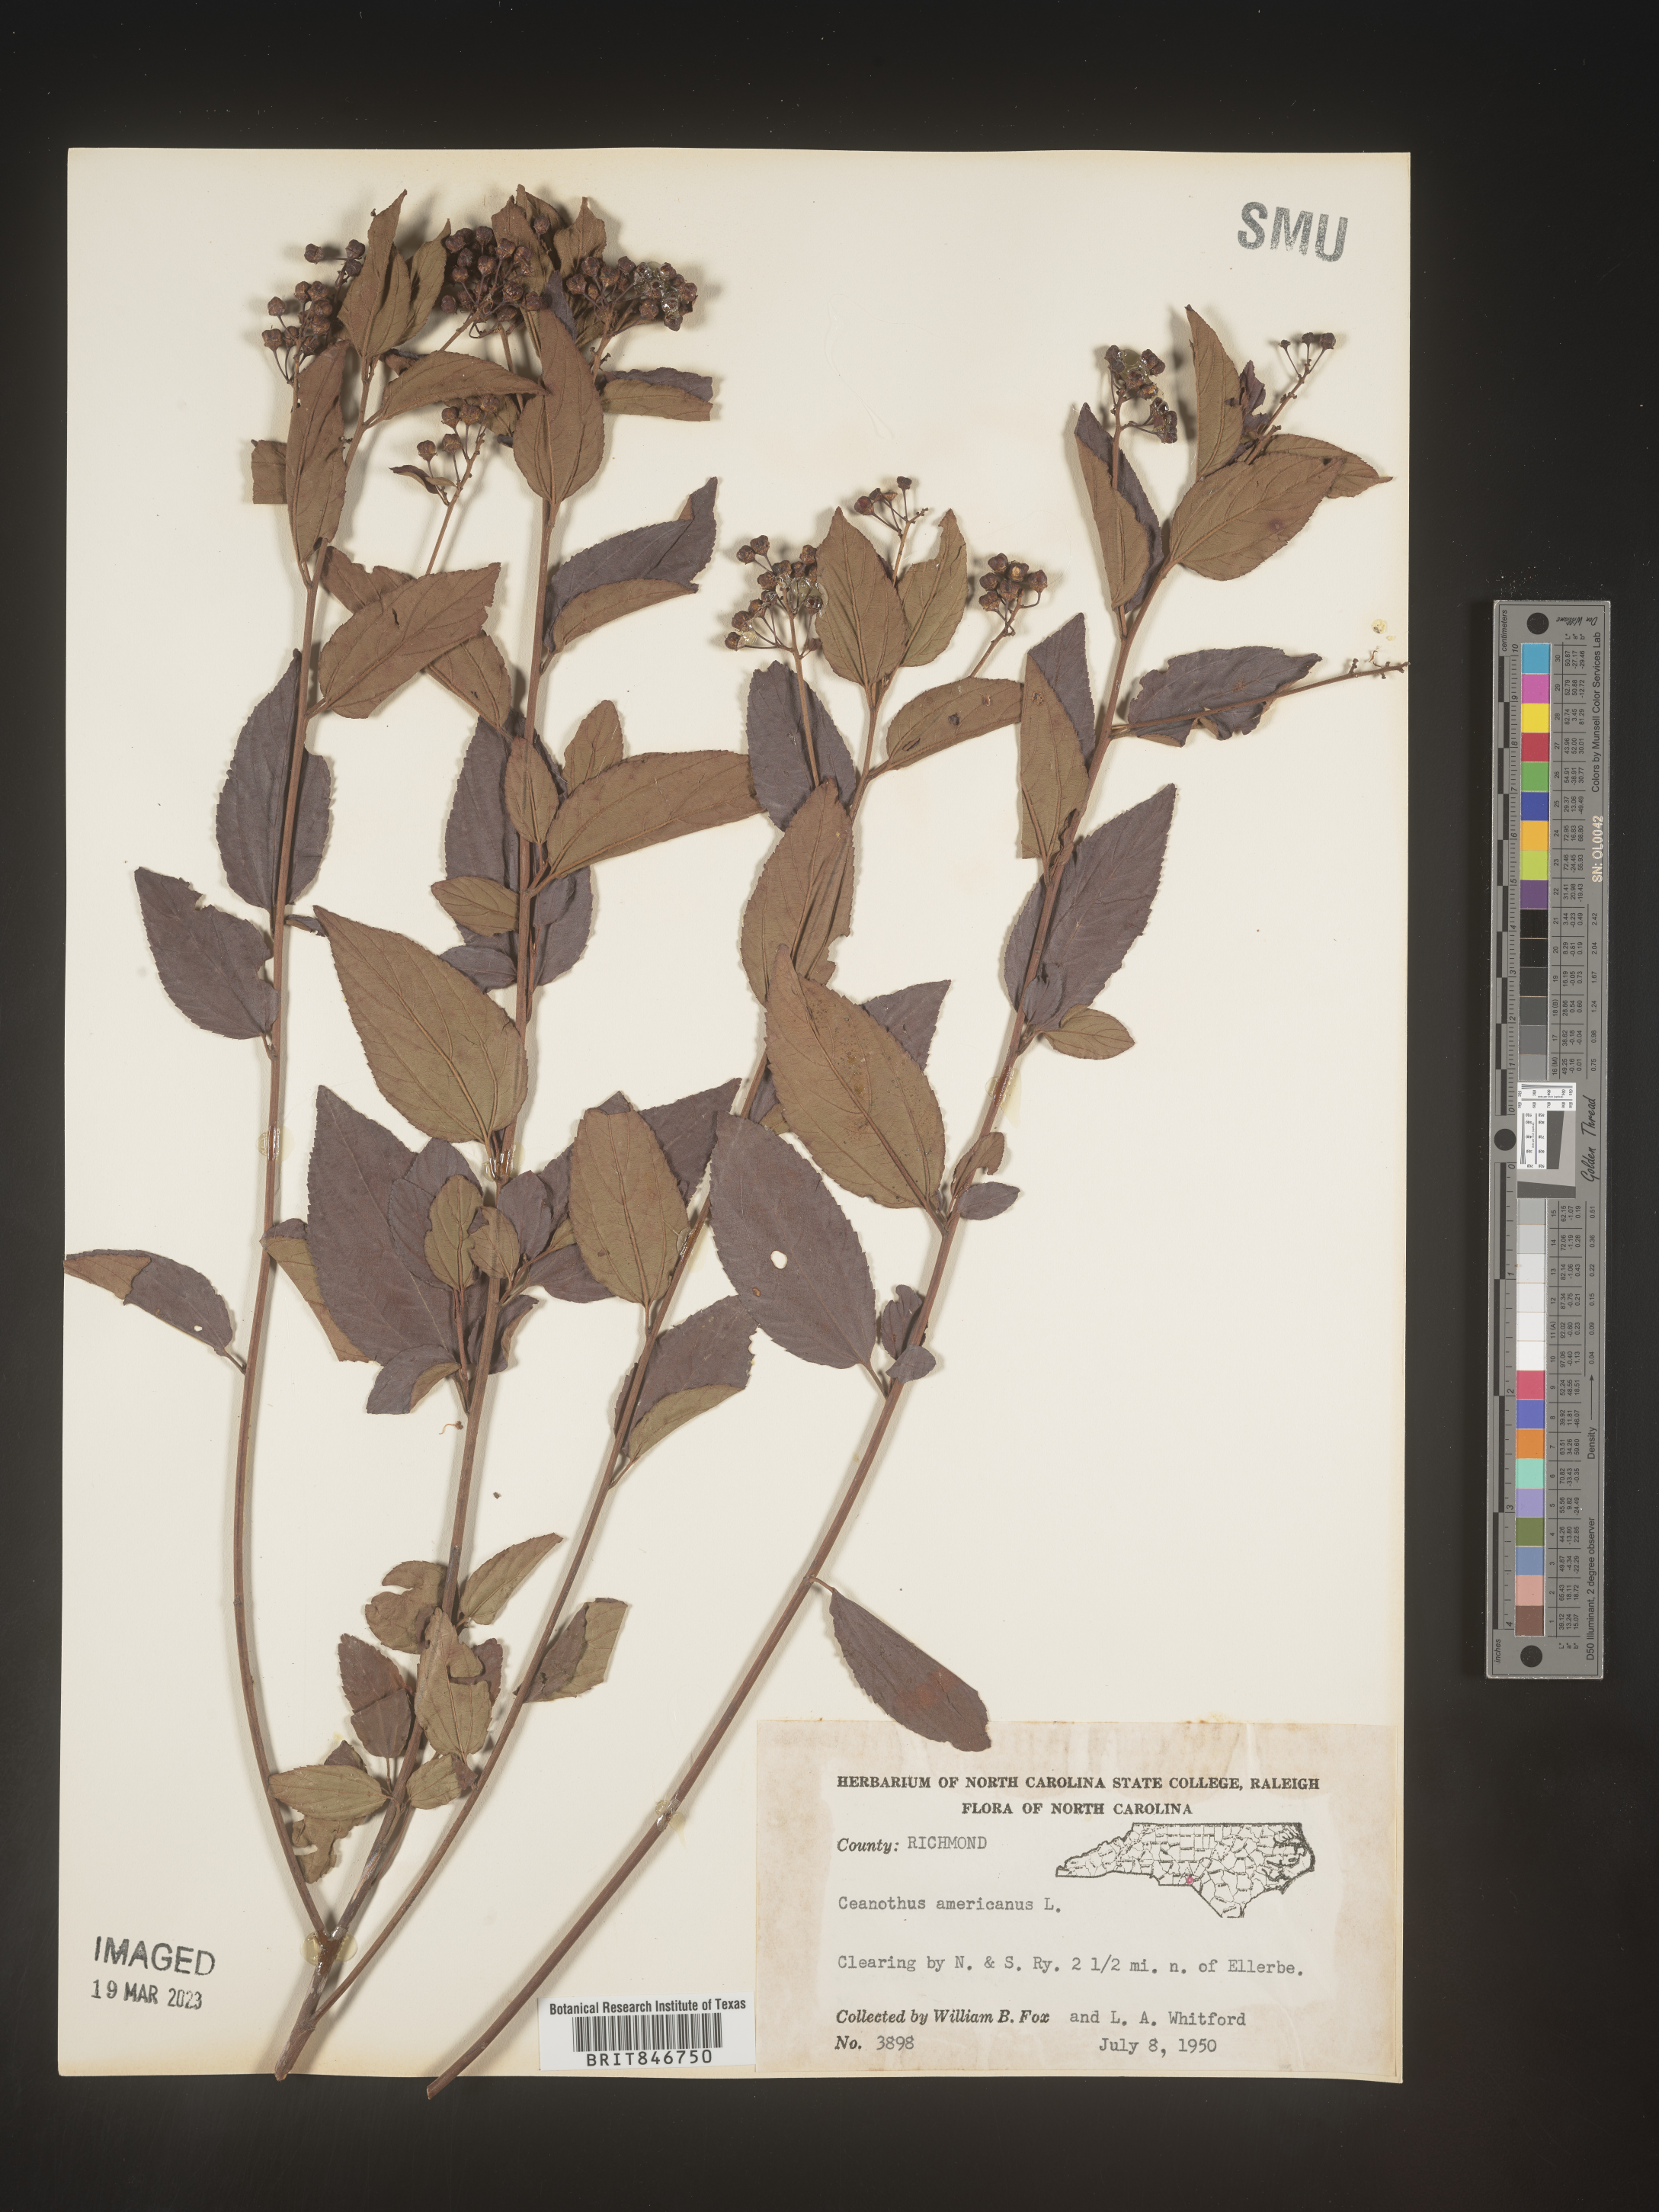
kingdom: Plantae
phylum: Tracheophyta
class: Magnoliopsida
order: Rosales
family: Rhamnaceae
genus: Ceanothus
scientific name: Ceanothus americanus
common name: Redroot
